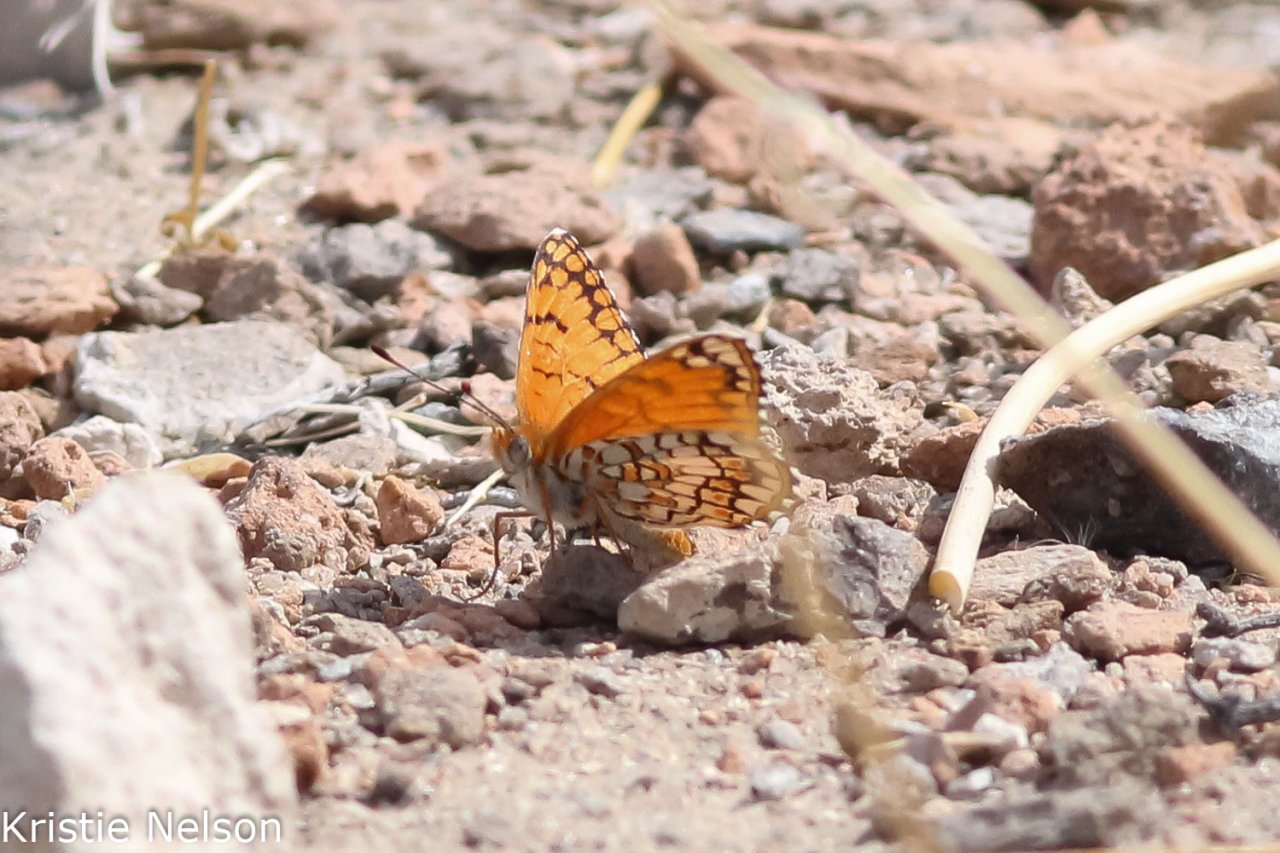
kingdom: Animalia
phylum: Arthropoda
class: Insecta
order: Lepidoptera
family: Nymphalidae
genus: Chlosyne
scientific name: Chlosyne acastus
